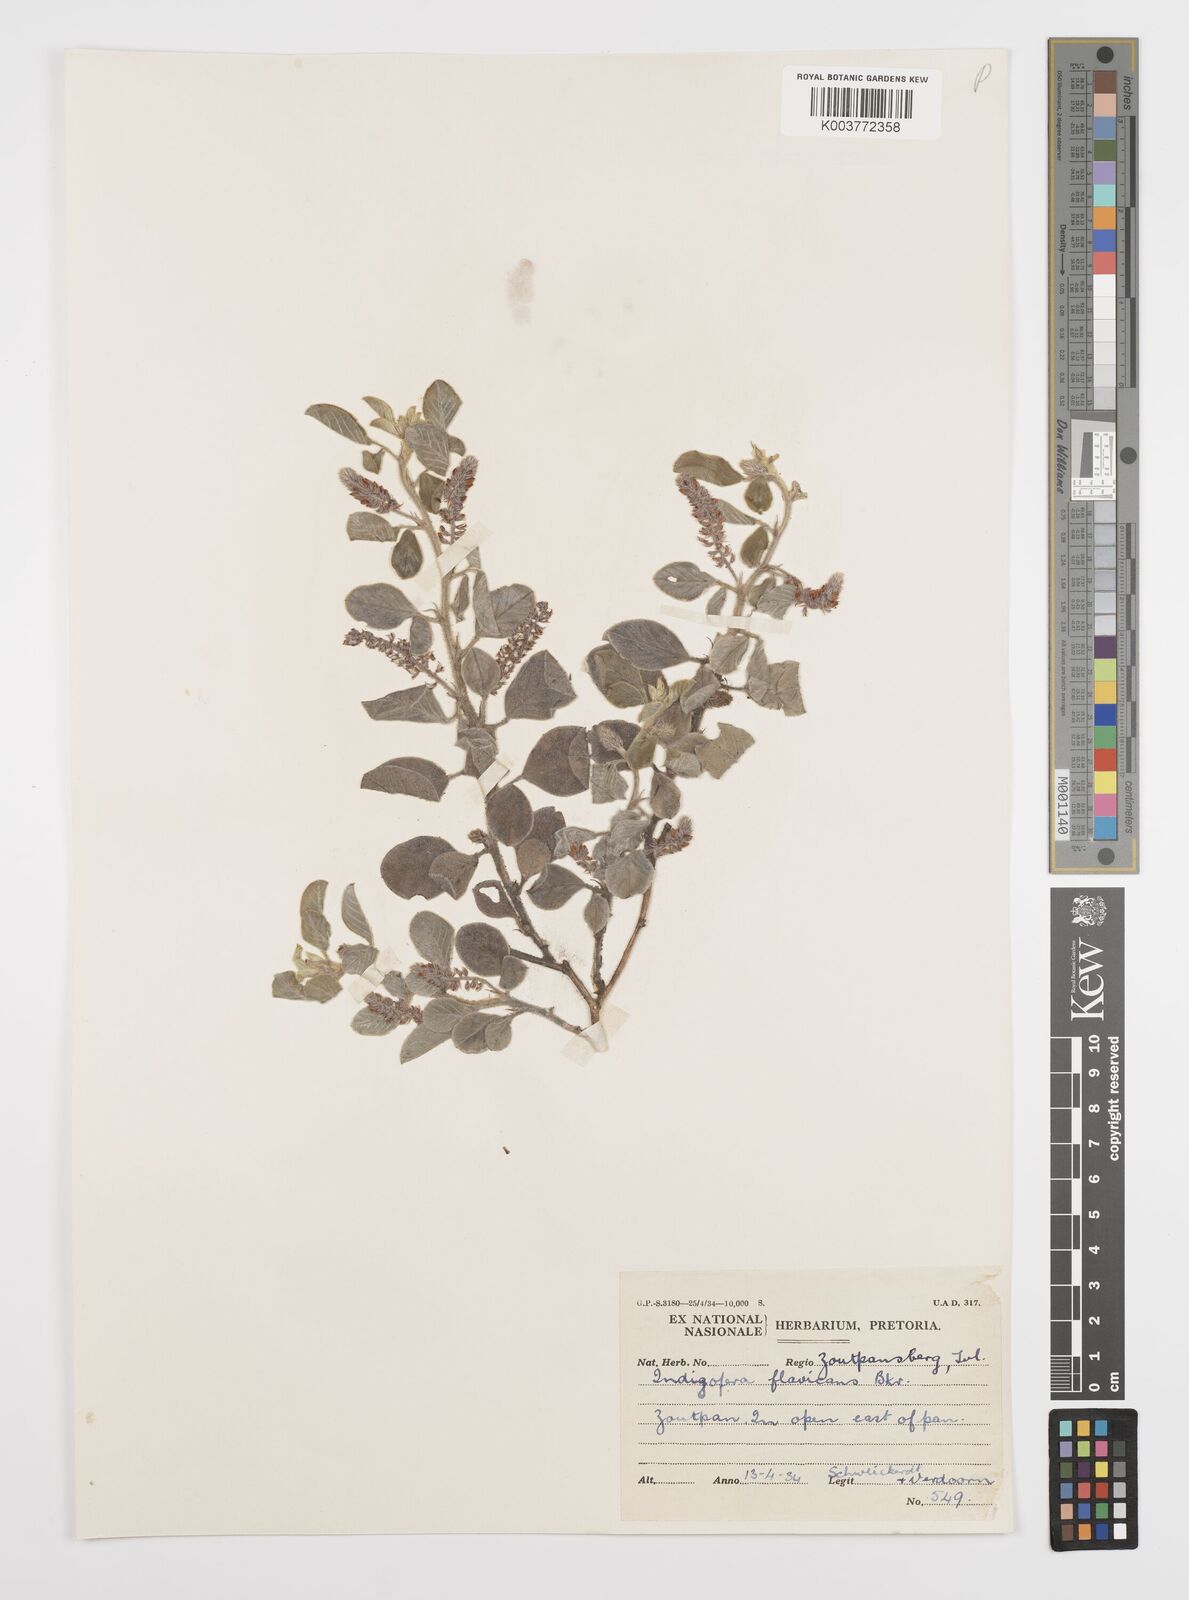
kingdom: Plantae
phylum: Tracheophyta
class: Magnoliopsida
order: Fabales
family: Fabaceae
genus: Indigofera
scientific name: Indigofera flavicans
